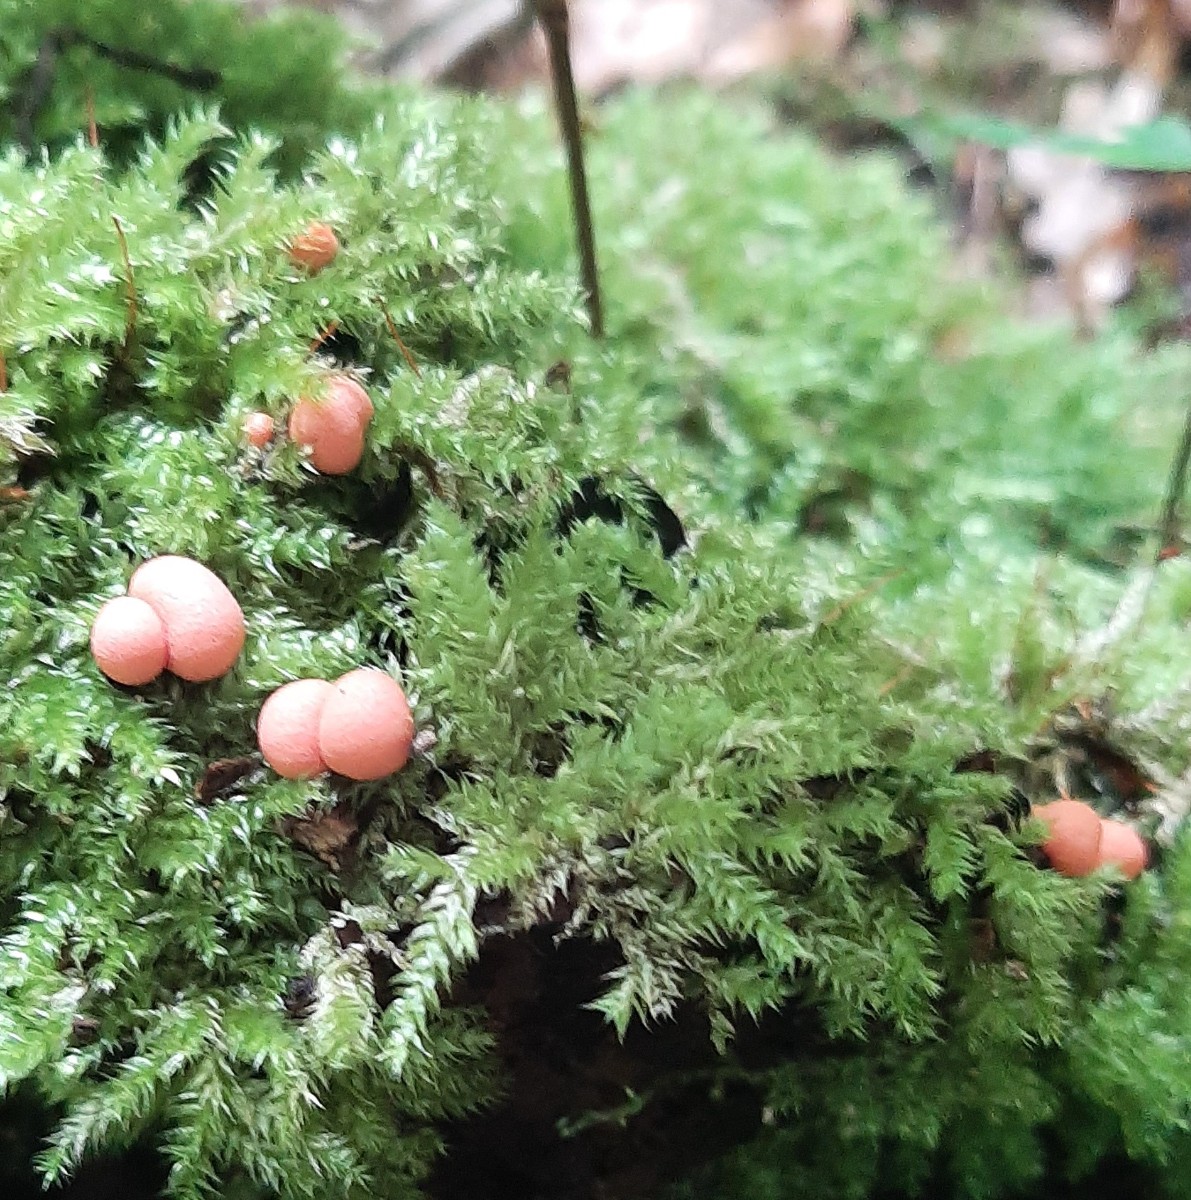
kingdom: Protozoa
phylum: Mycetozoa
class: Myxomycetes
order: Cribrariales
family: Tubiferaceae
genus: Lycogala
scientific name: Lycogala epidendrum
